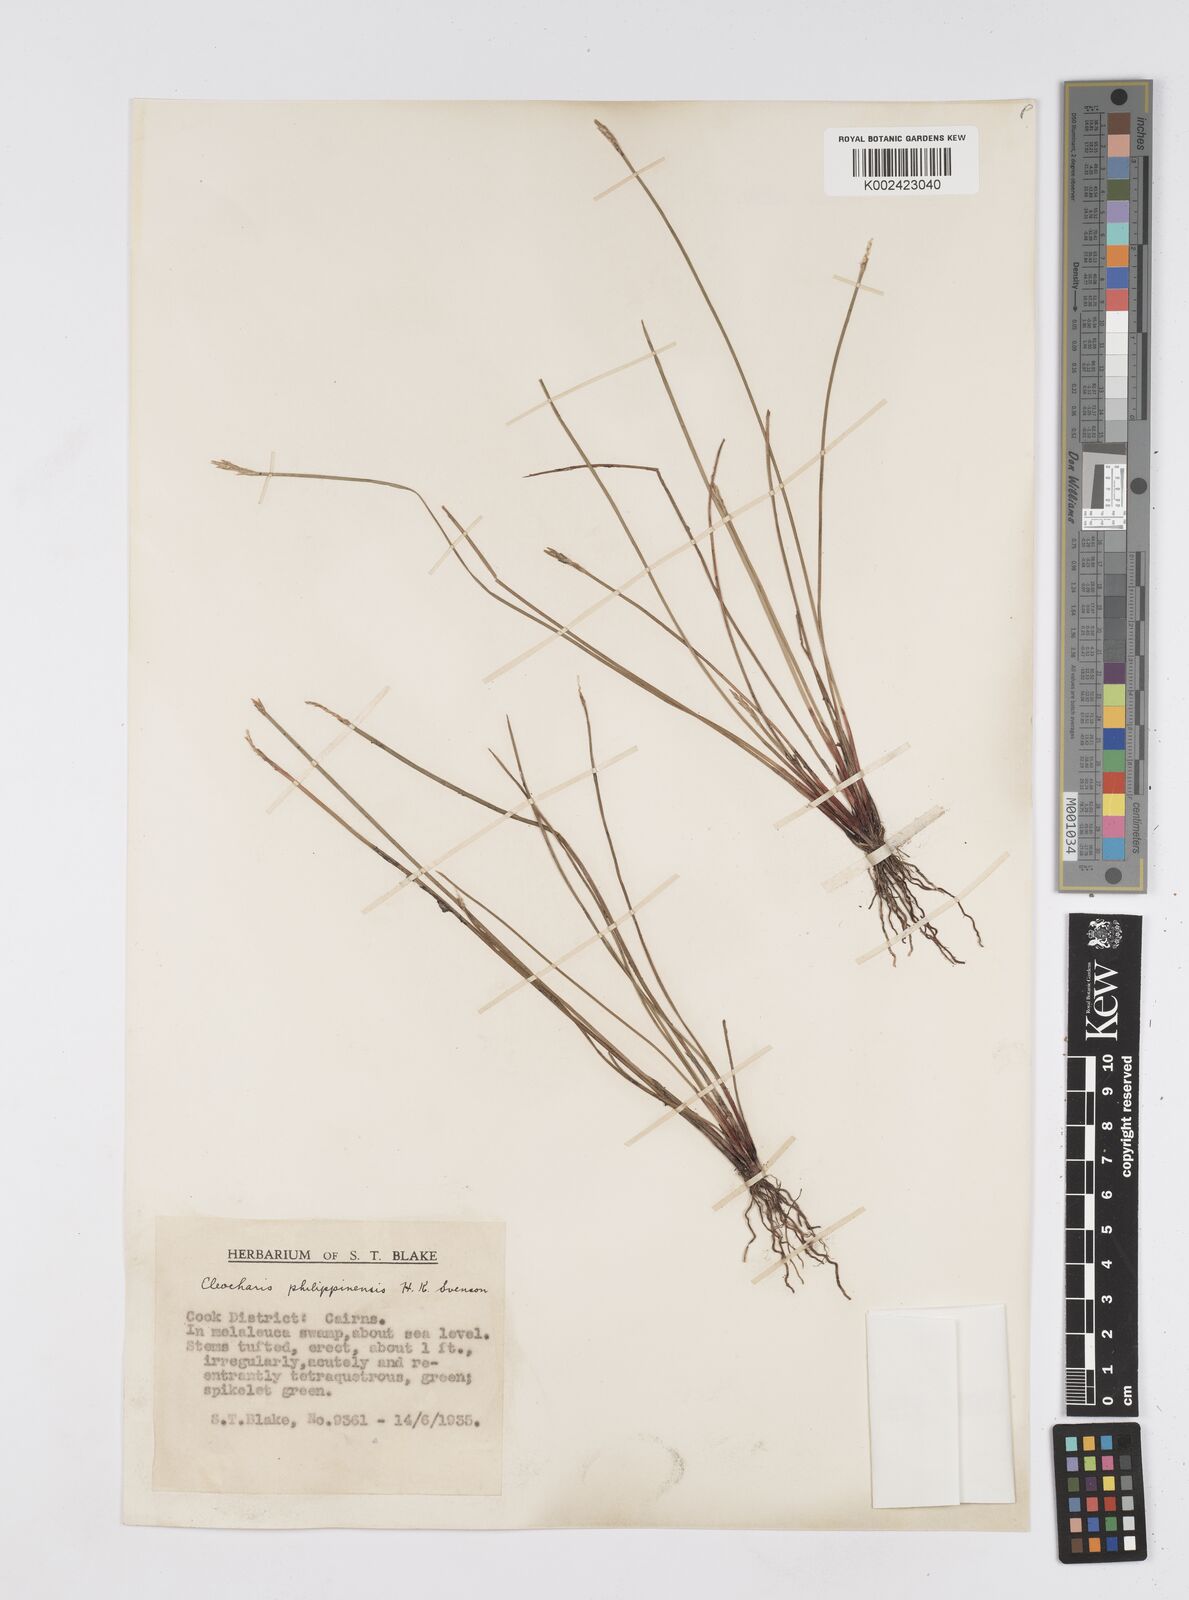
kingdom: Plantae
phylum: Tracheophyta
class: Liliopsida
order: Poales
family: Cyperaceae
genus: Eleocharis
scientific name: Eleocharis nuda
